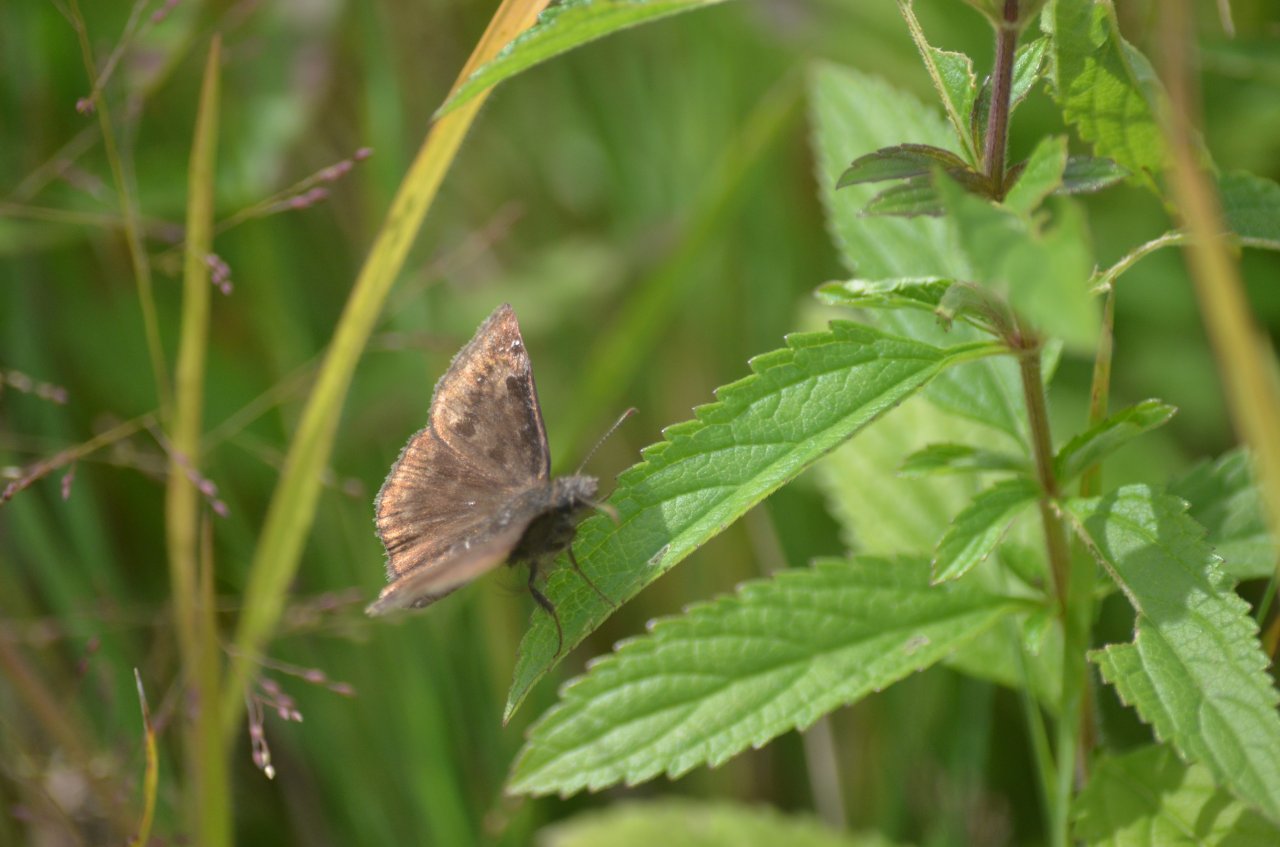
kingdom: Animalia
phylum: Arthropoda
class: Insecta
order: Lepidoptera
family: Hesperiidae
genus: Gesta
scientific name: Gesta
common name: Wild Indigo Duskywing
